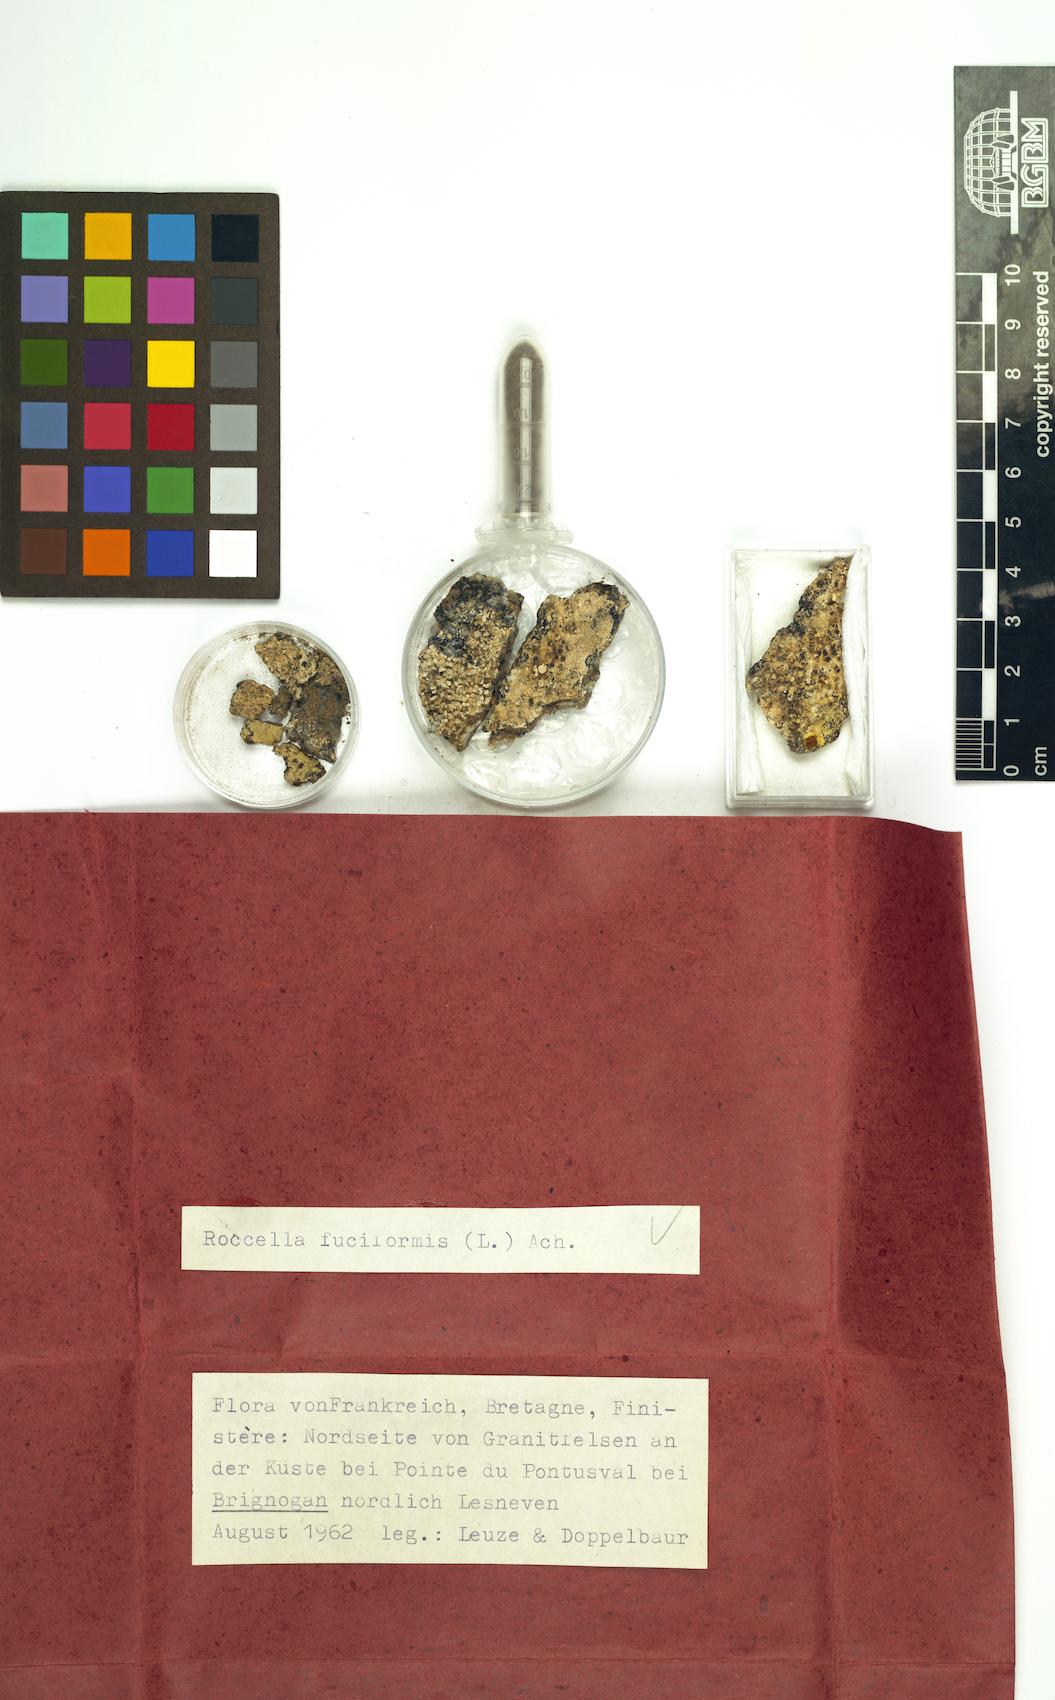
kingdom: Fungi
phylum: Ascomycota
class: Arthoniomycetes
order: Arthoniales
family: Roccellaceae
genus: Follmanniella
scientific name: Follmanniella scutellata
